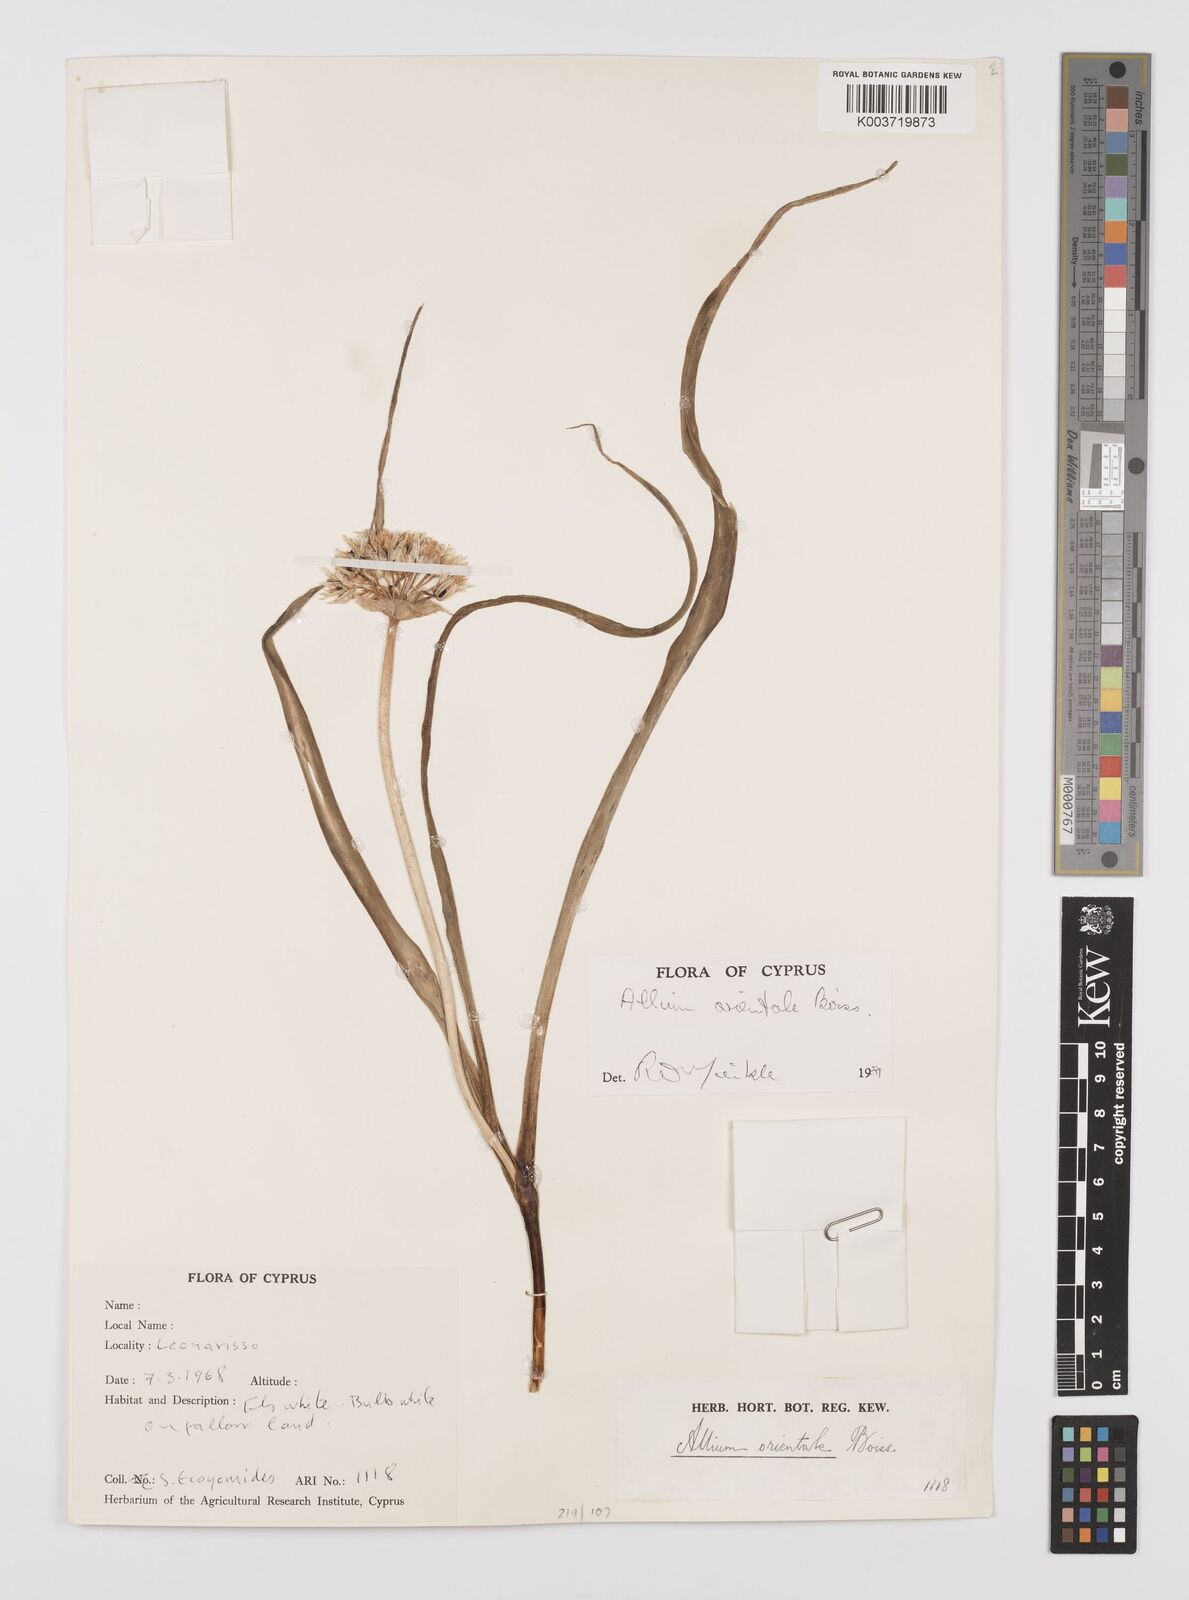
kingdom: Plantae
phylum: Tracheophyta
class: Liliopsida
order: Asparagales
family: Amaryllidaceae
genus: Allium
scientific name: Allium orientale
